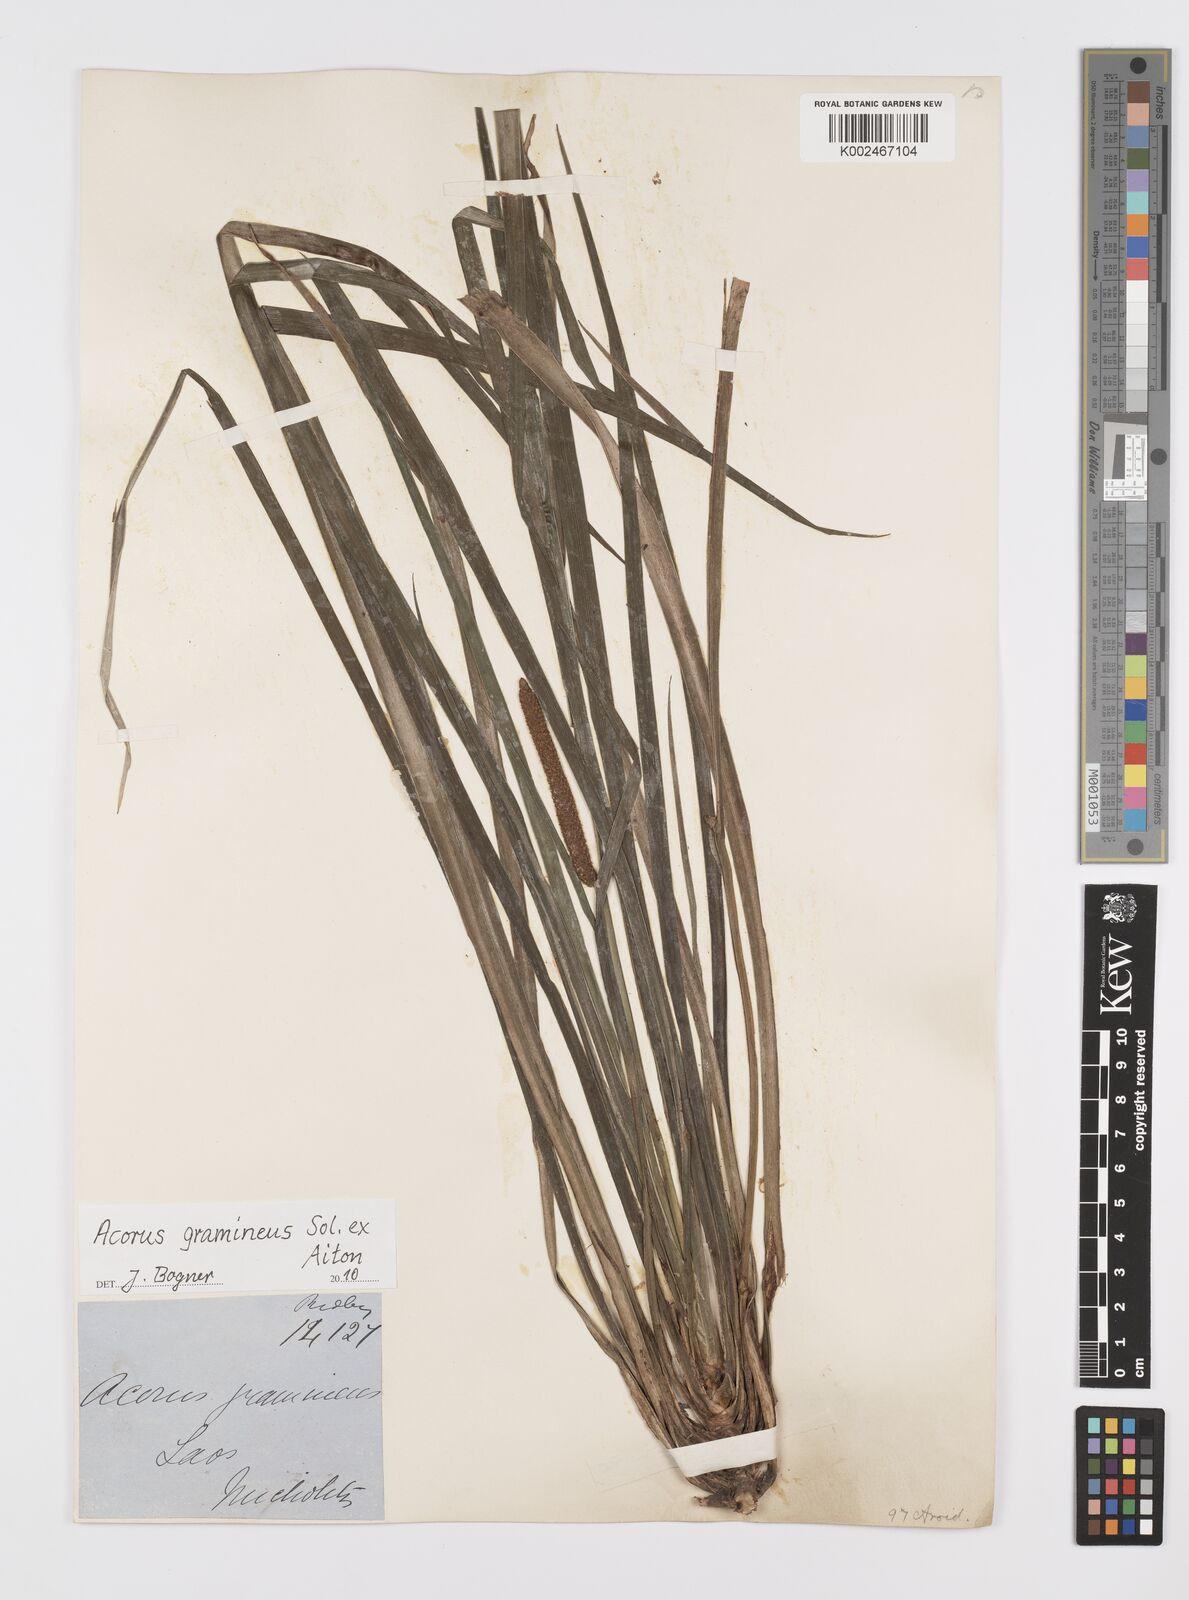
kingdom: Plantae
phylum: Tracheophyta
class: Liliopsida
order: Acorales
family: Acoraceae
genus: Acorus
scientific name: Acorus gramineus
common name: Slender sweet-flag
